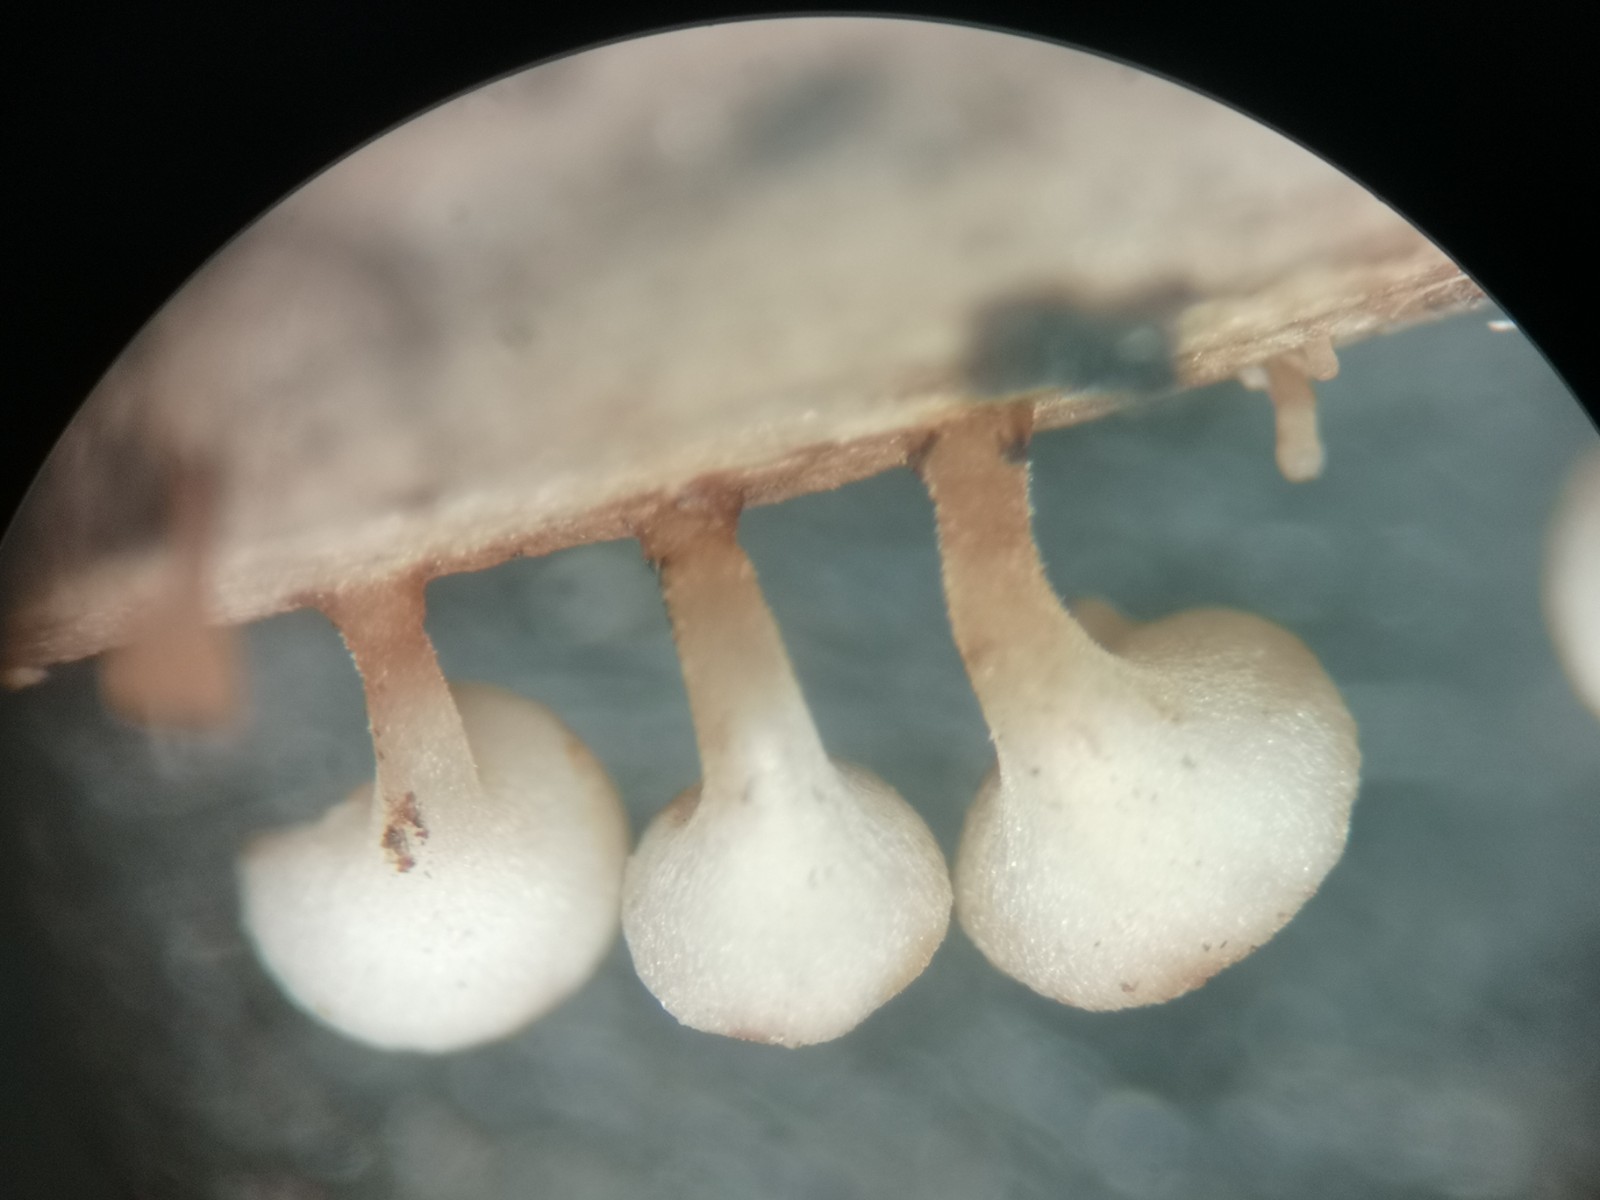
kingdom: Fungi
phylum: Ascomycota
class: Leotiomycetes
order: Helotiales
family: Helotiaceae
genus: Hymenoscyphus
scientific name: Hymenoscyphus scutula
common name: almindelig stilkskive
